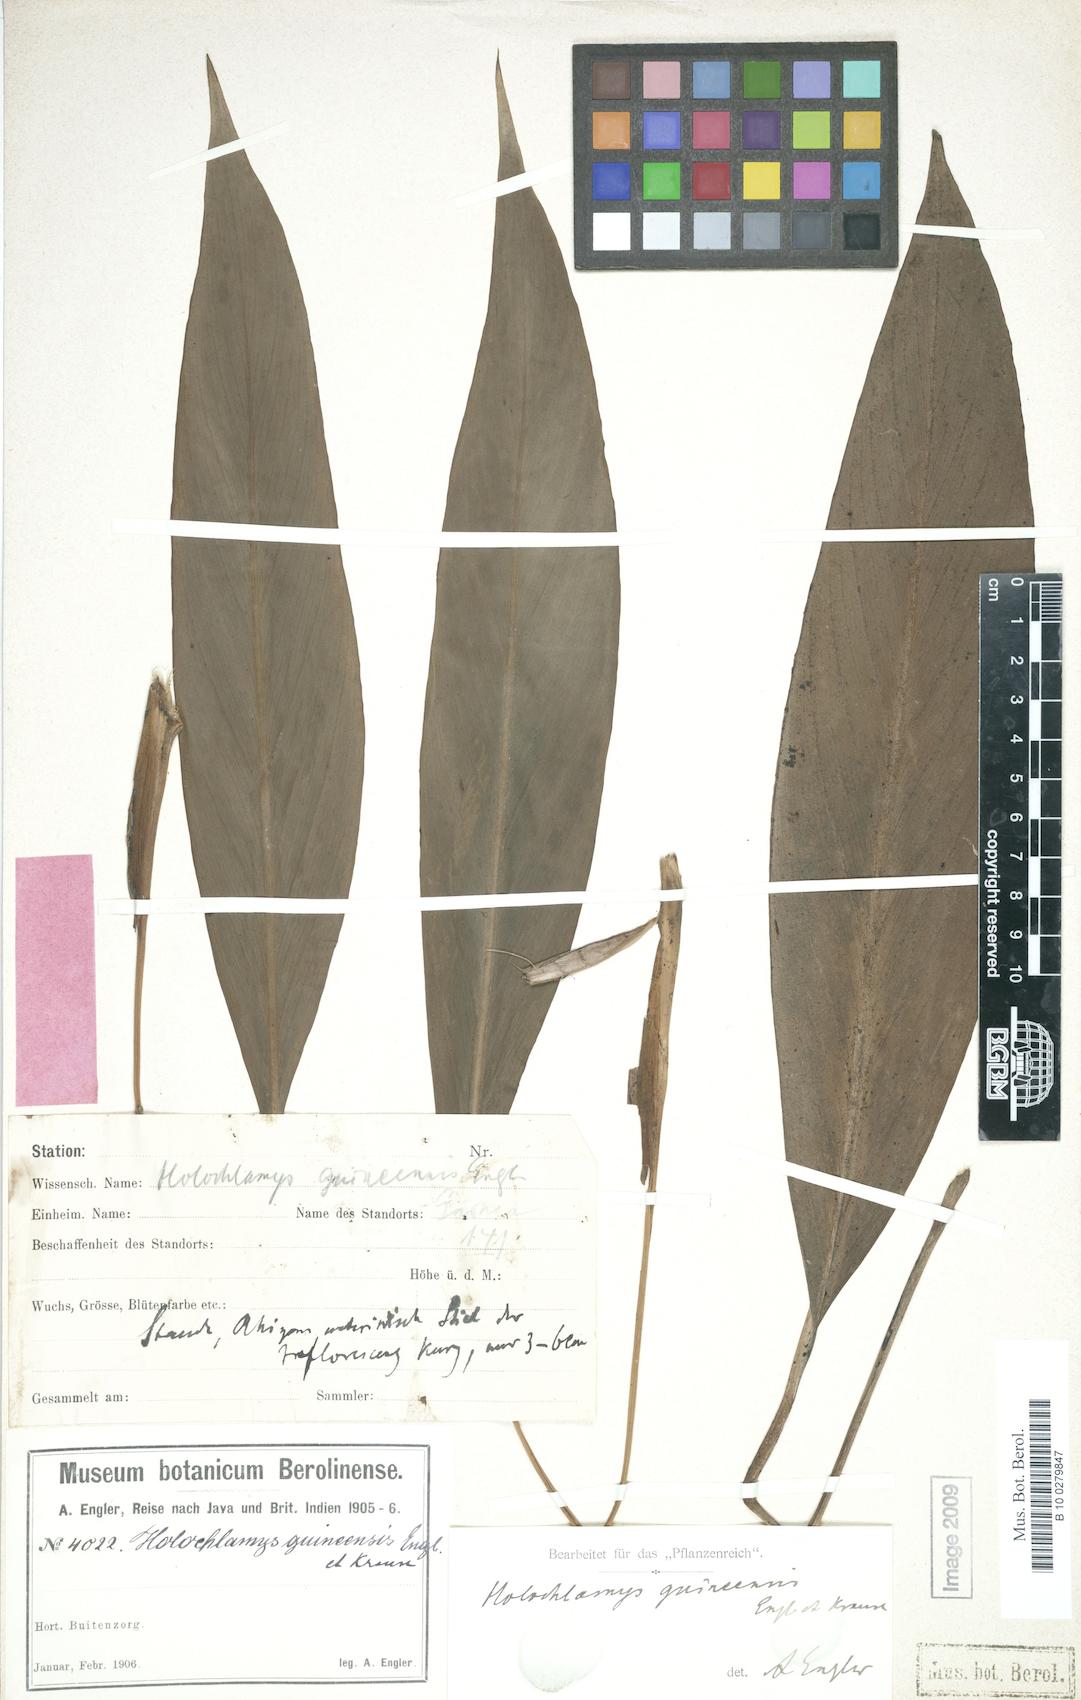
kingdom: Plantae
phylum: Tracheophyta
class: Liliopsida
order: Alismatales
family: Araceae
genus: Holochlamys
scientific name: Holochlamys beccarii
